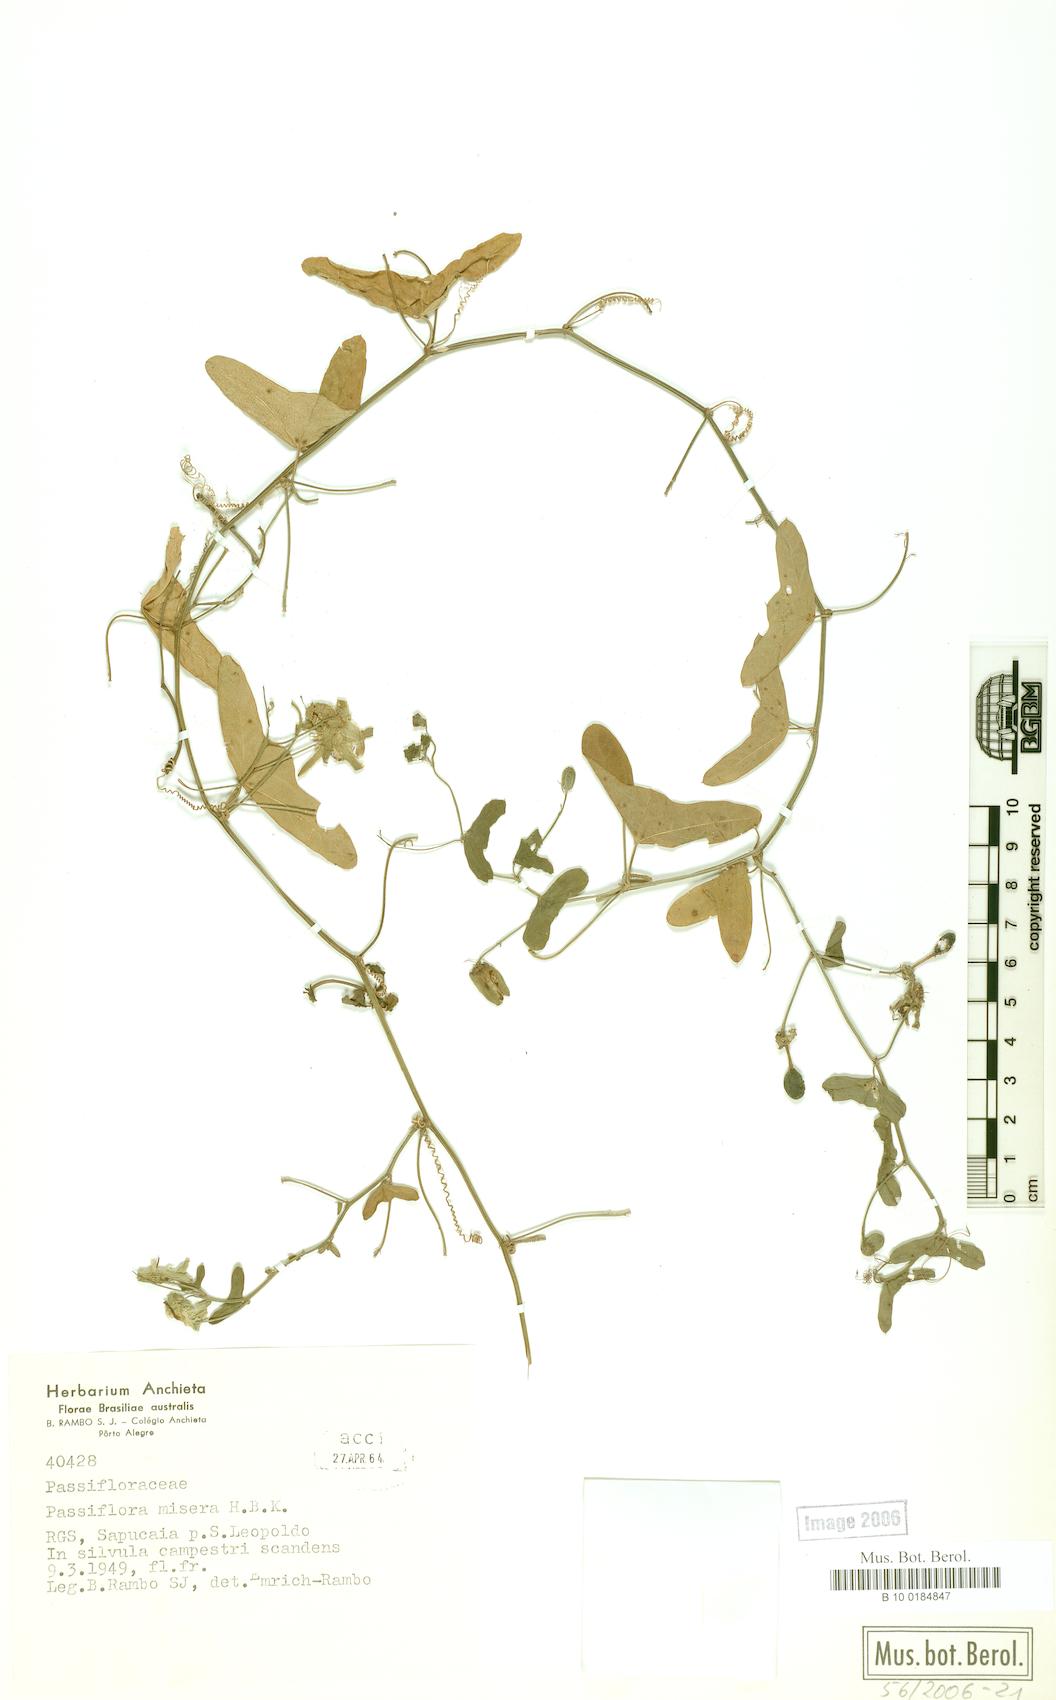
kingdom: Plantae
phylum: Tracheophyta
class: Magnoliopsida
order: Malpighiales
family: Passifloraceae
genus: Passiflora
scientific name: Passiflora misera
